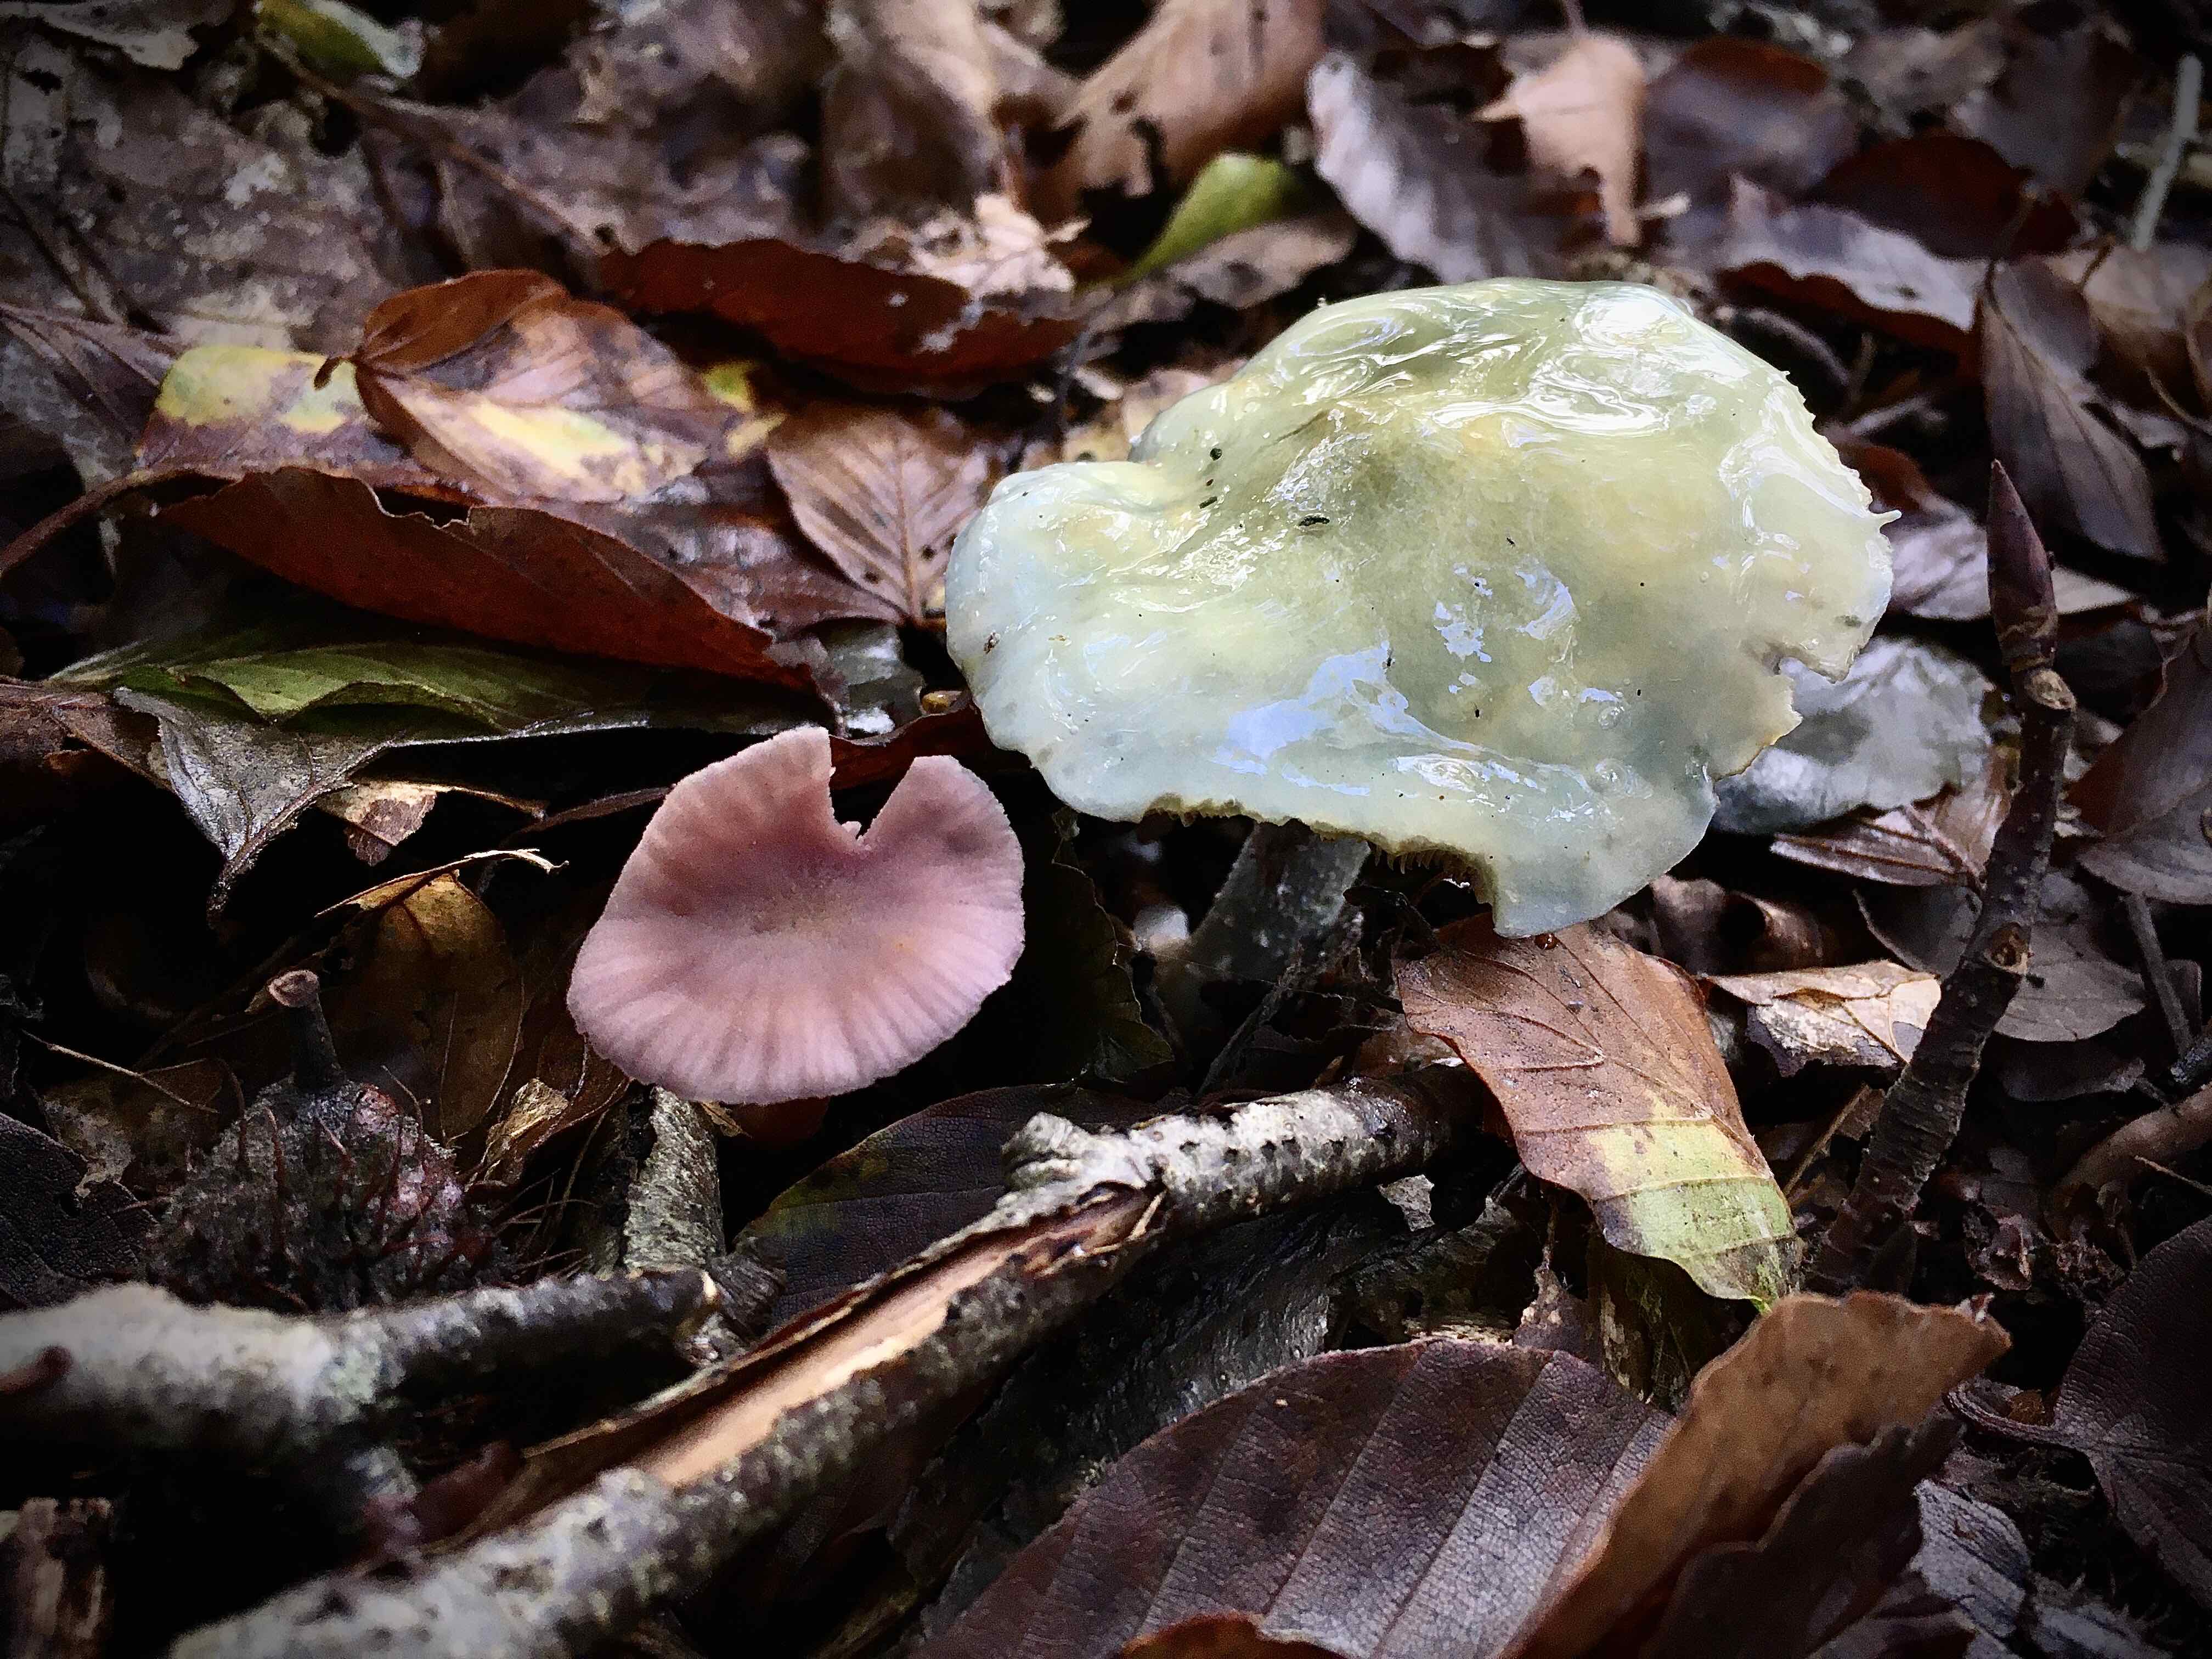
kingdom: Fungi
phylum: Basidiomycota
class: Agaricomycetes
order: Agaricales
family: Strophariaceae
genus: Stropharia
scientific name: Stropharia
